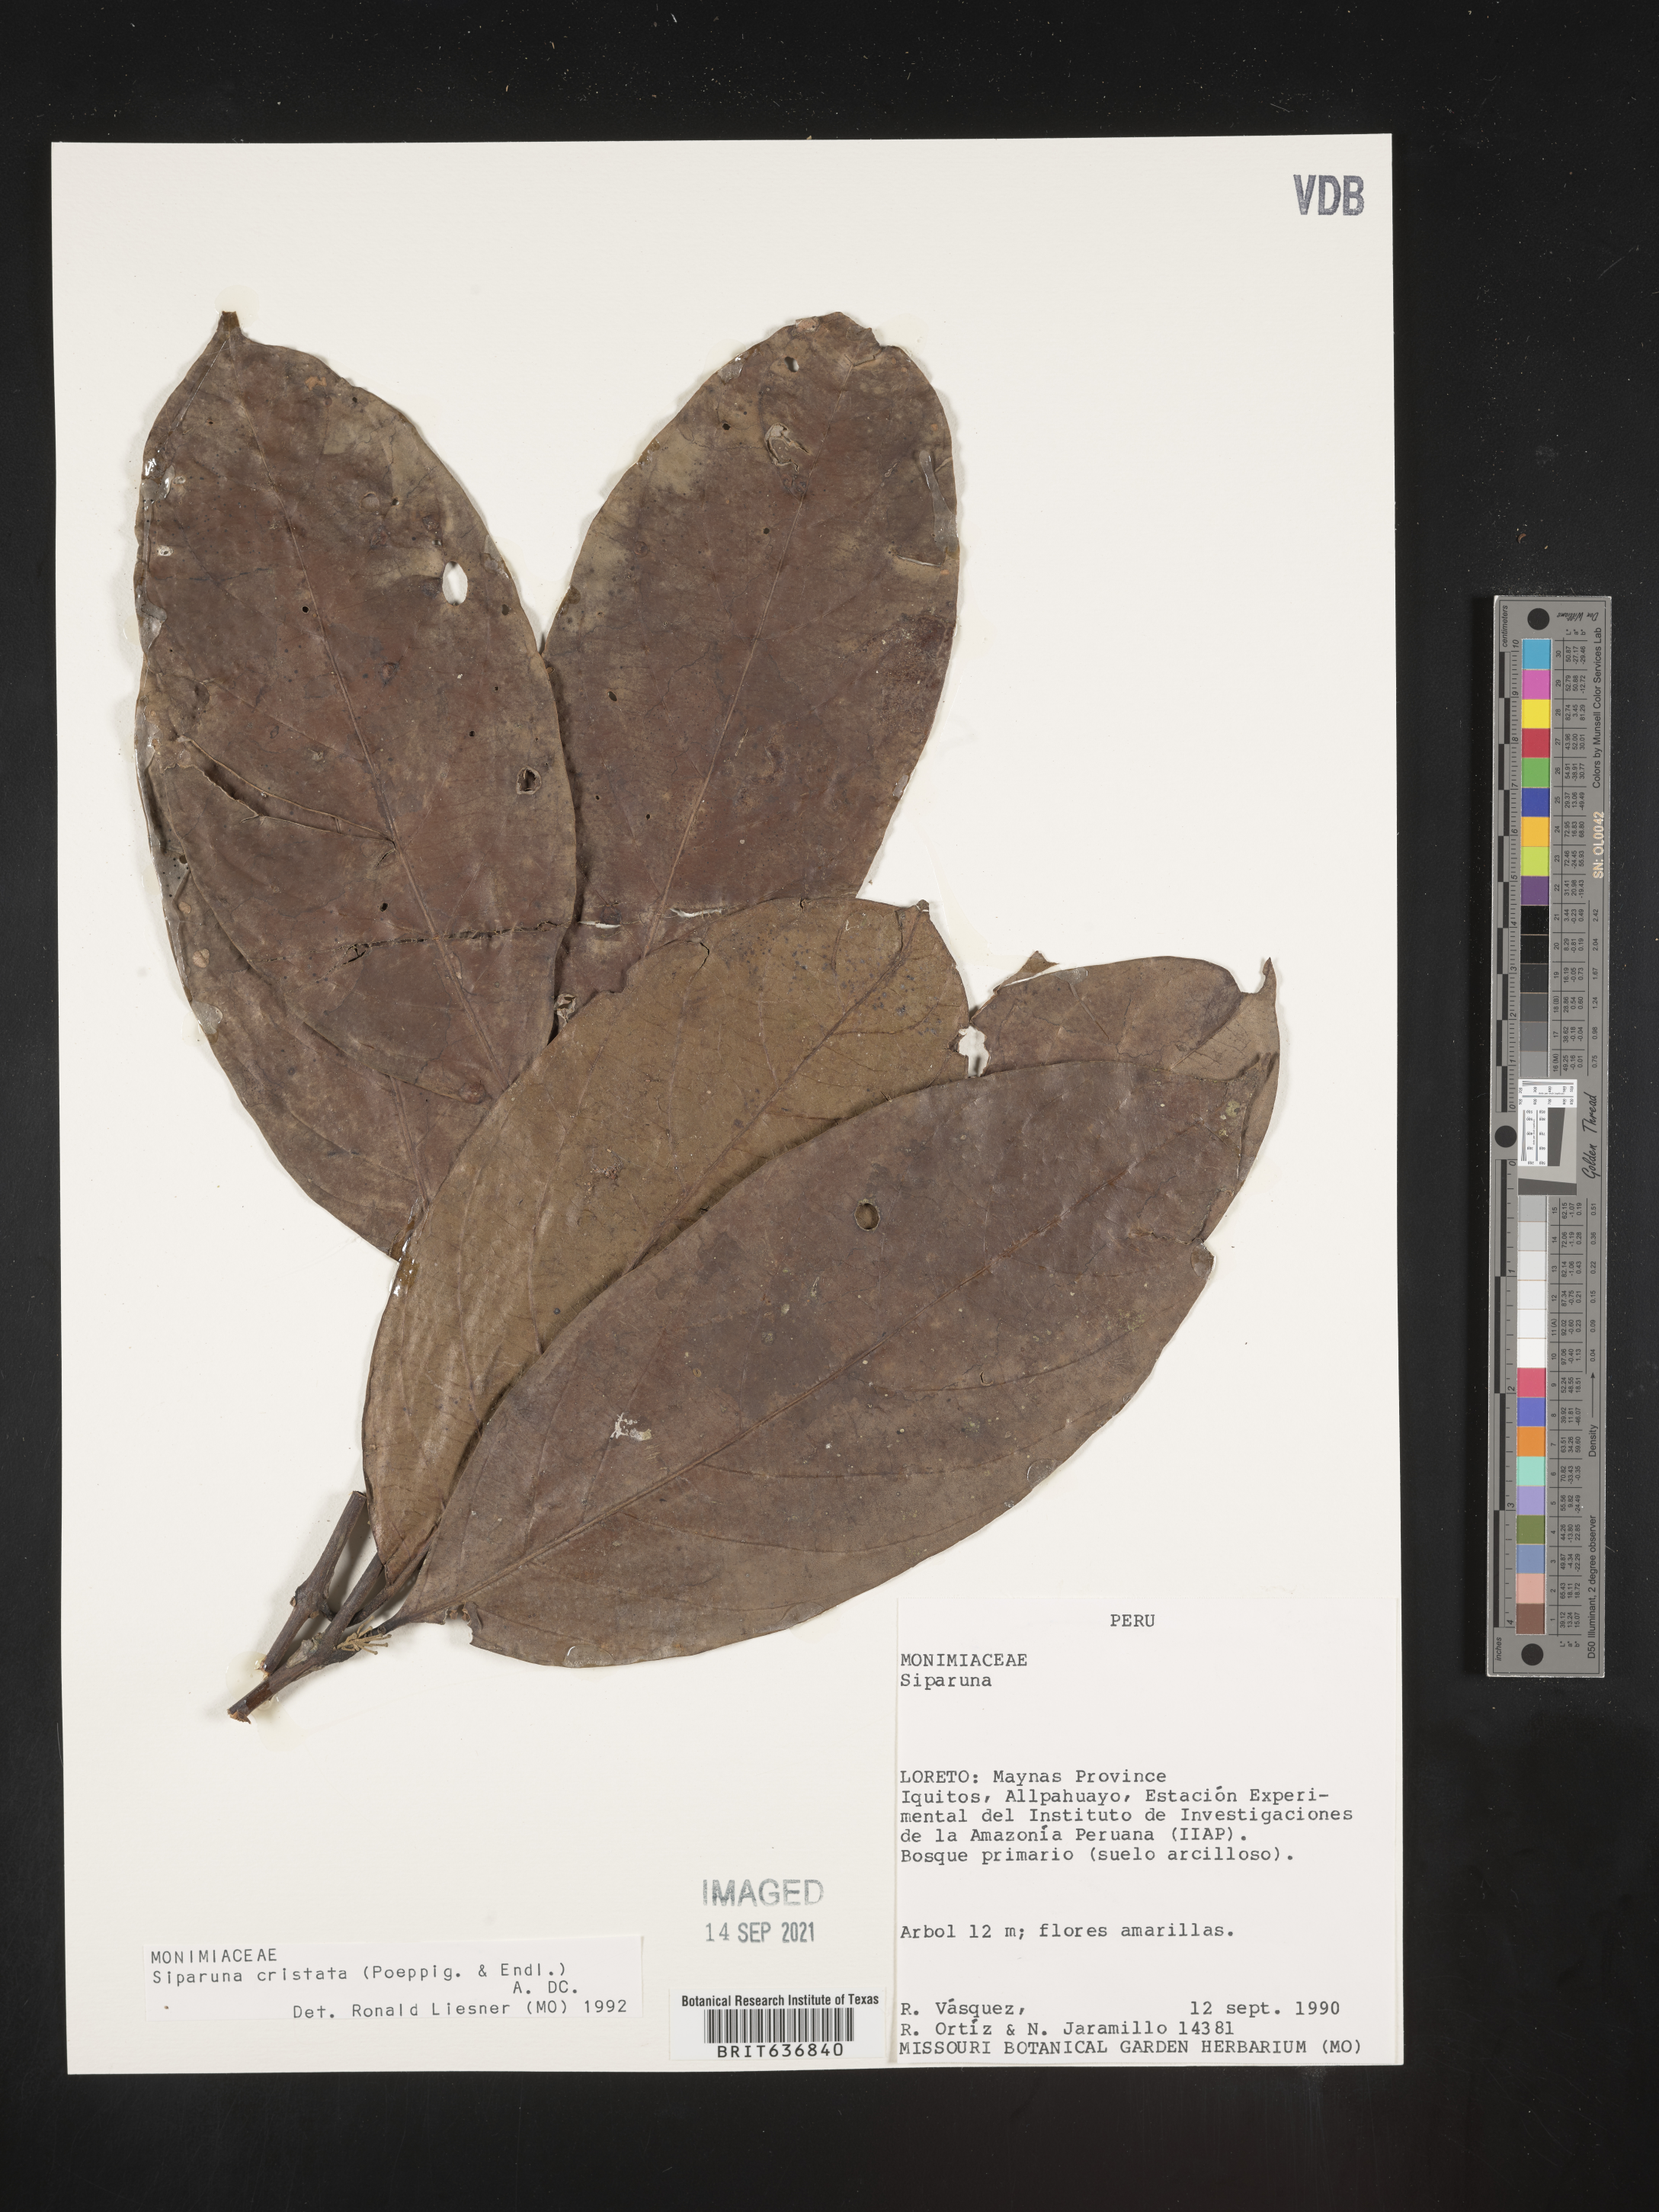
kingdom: Plantae
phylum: Tracheophyta
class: Magnoliopsida
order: Laurales
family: Siparunaceae
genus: Siparuna
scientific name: Siparuna
